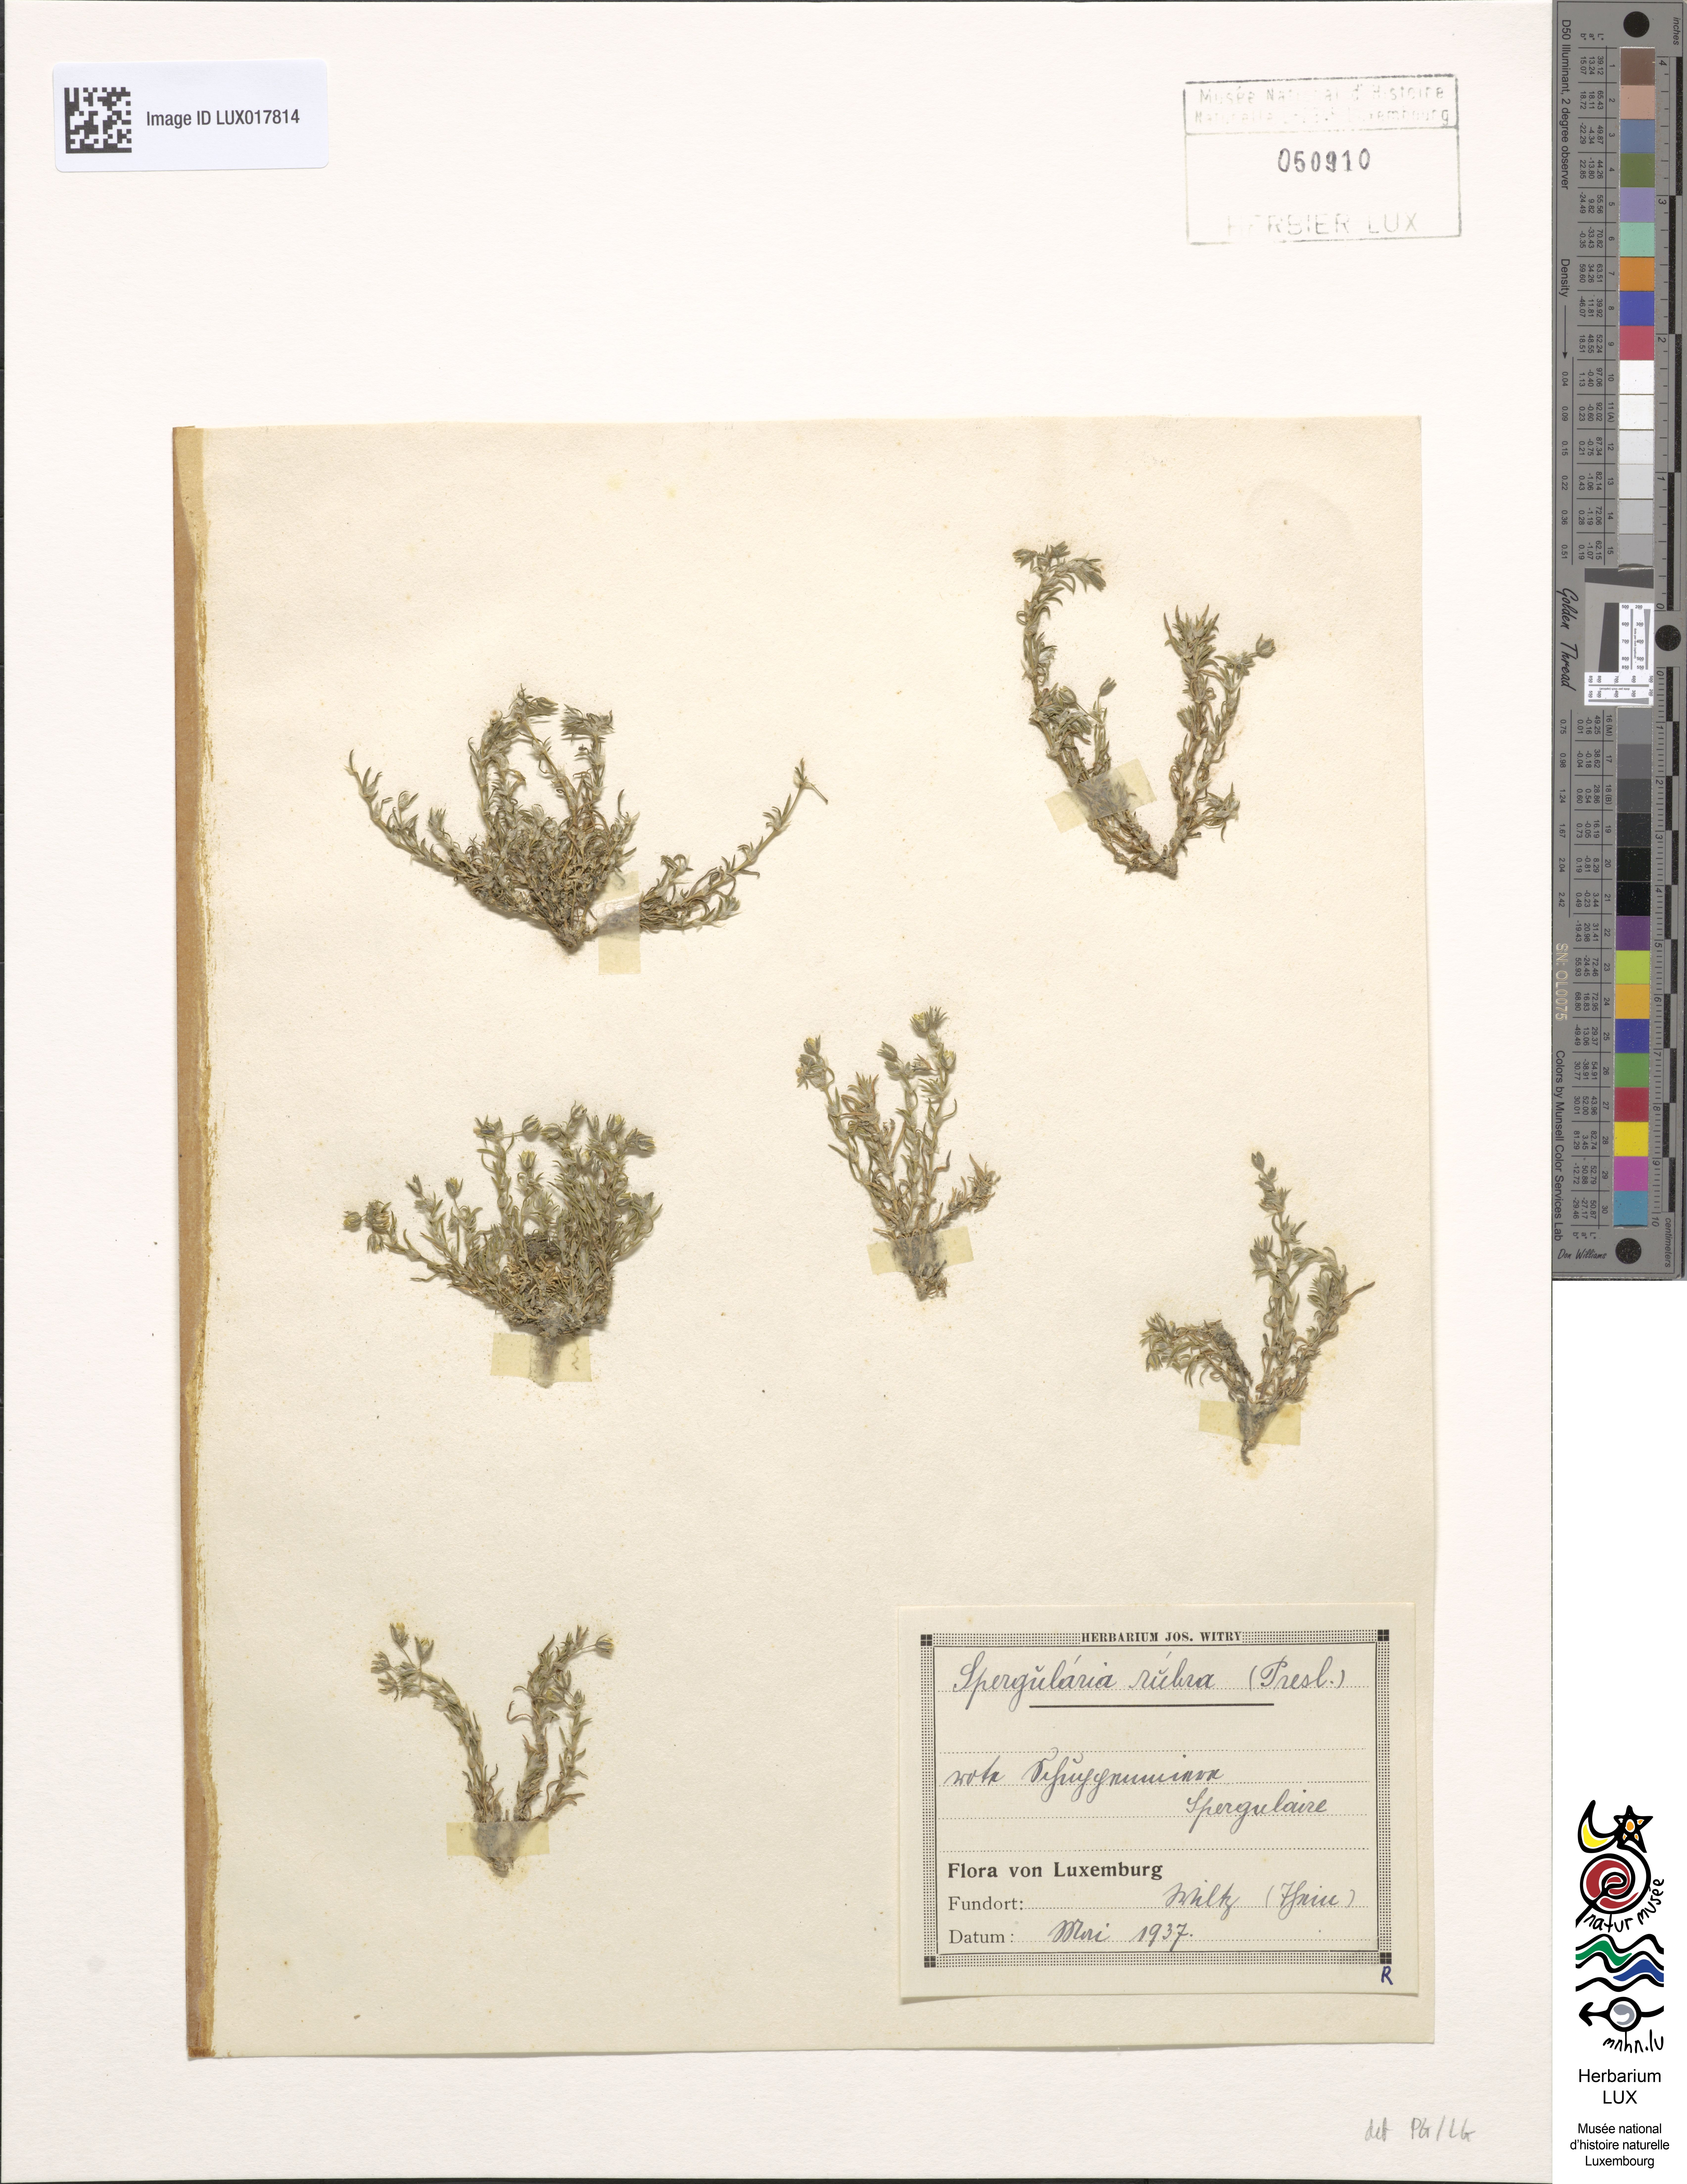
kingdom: Plantae
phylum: Tracheophyta
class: Magnoliopsida
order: Caryophyllales
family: Caryophyllaceae
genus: Spergularia
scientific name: Spergularia rubra
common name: Red sand-spurrey
